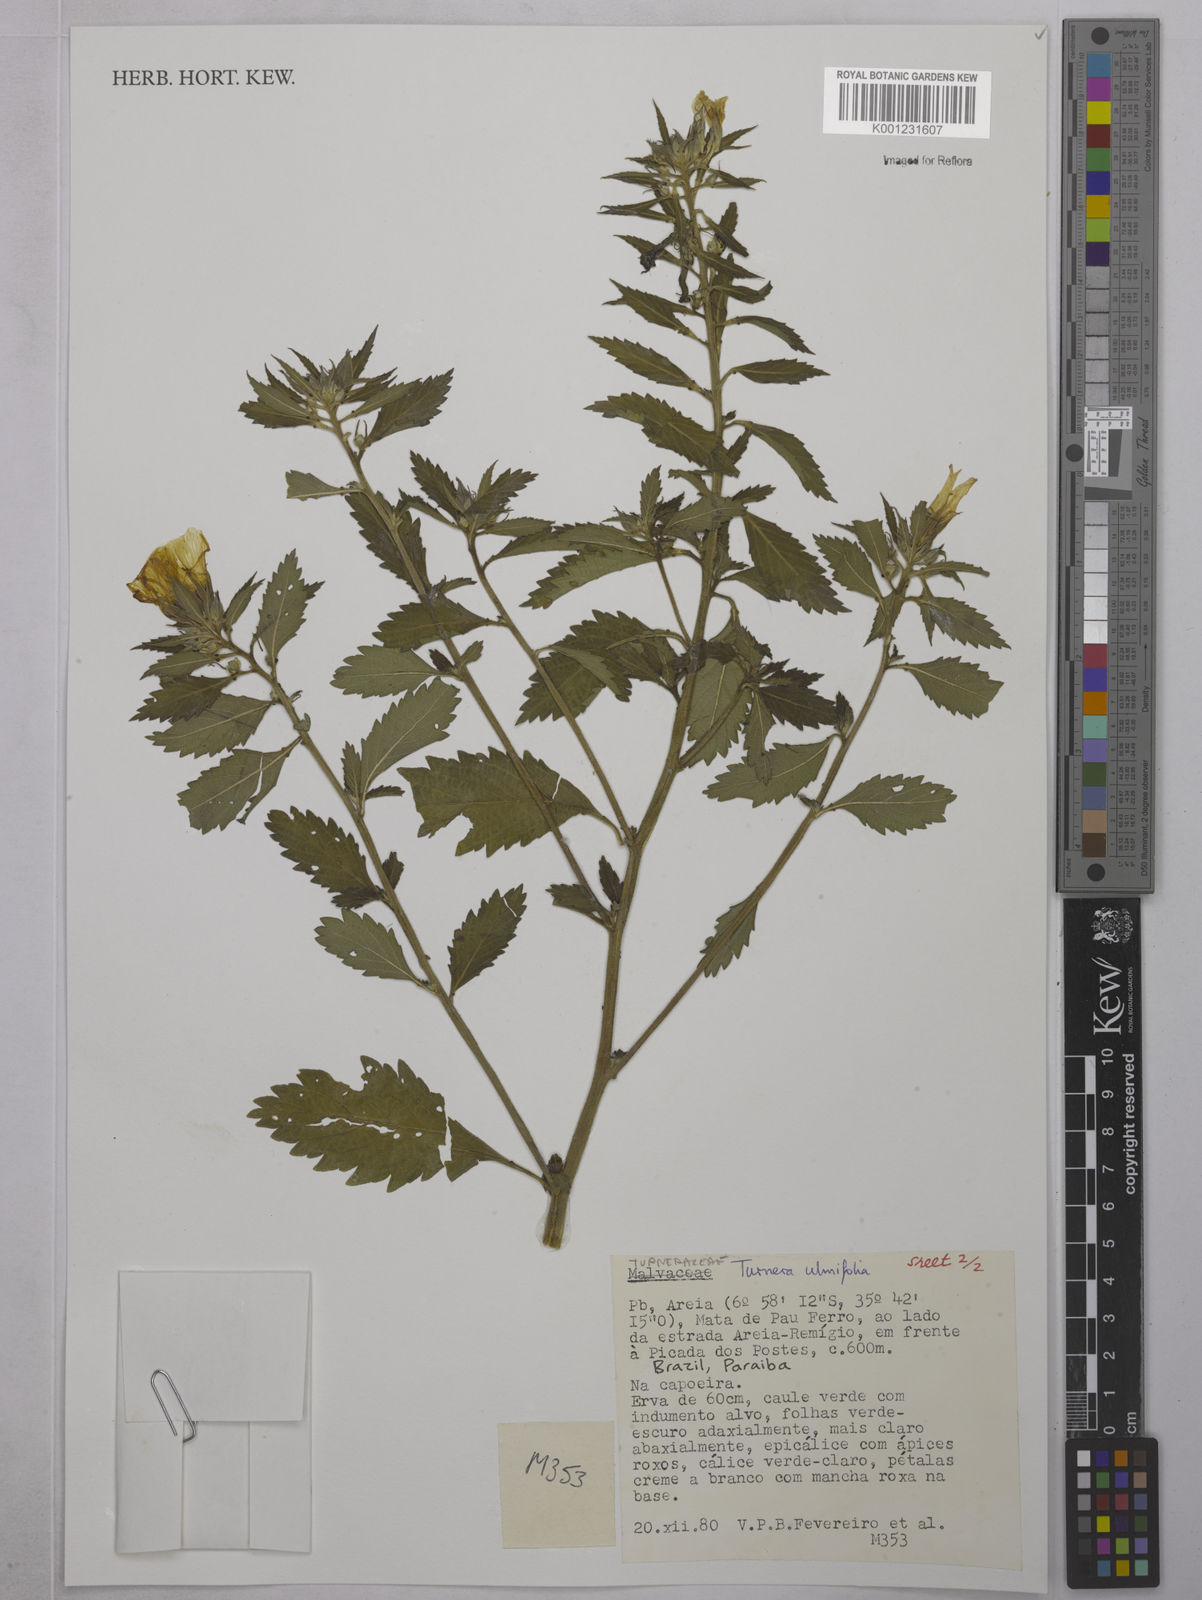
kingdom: Plantae
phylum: Tracheophyta
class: Magnoliopsida
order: Malpighiales
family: Turneraceae
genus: Turnera
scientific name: Turnera ulmifolia
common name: Ramgoat dashalong
